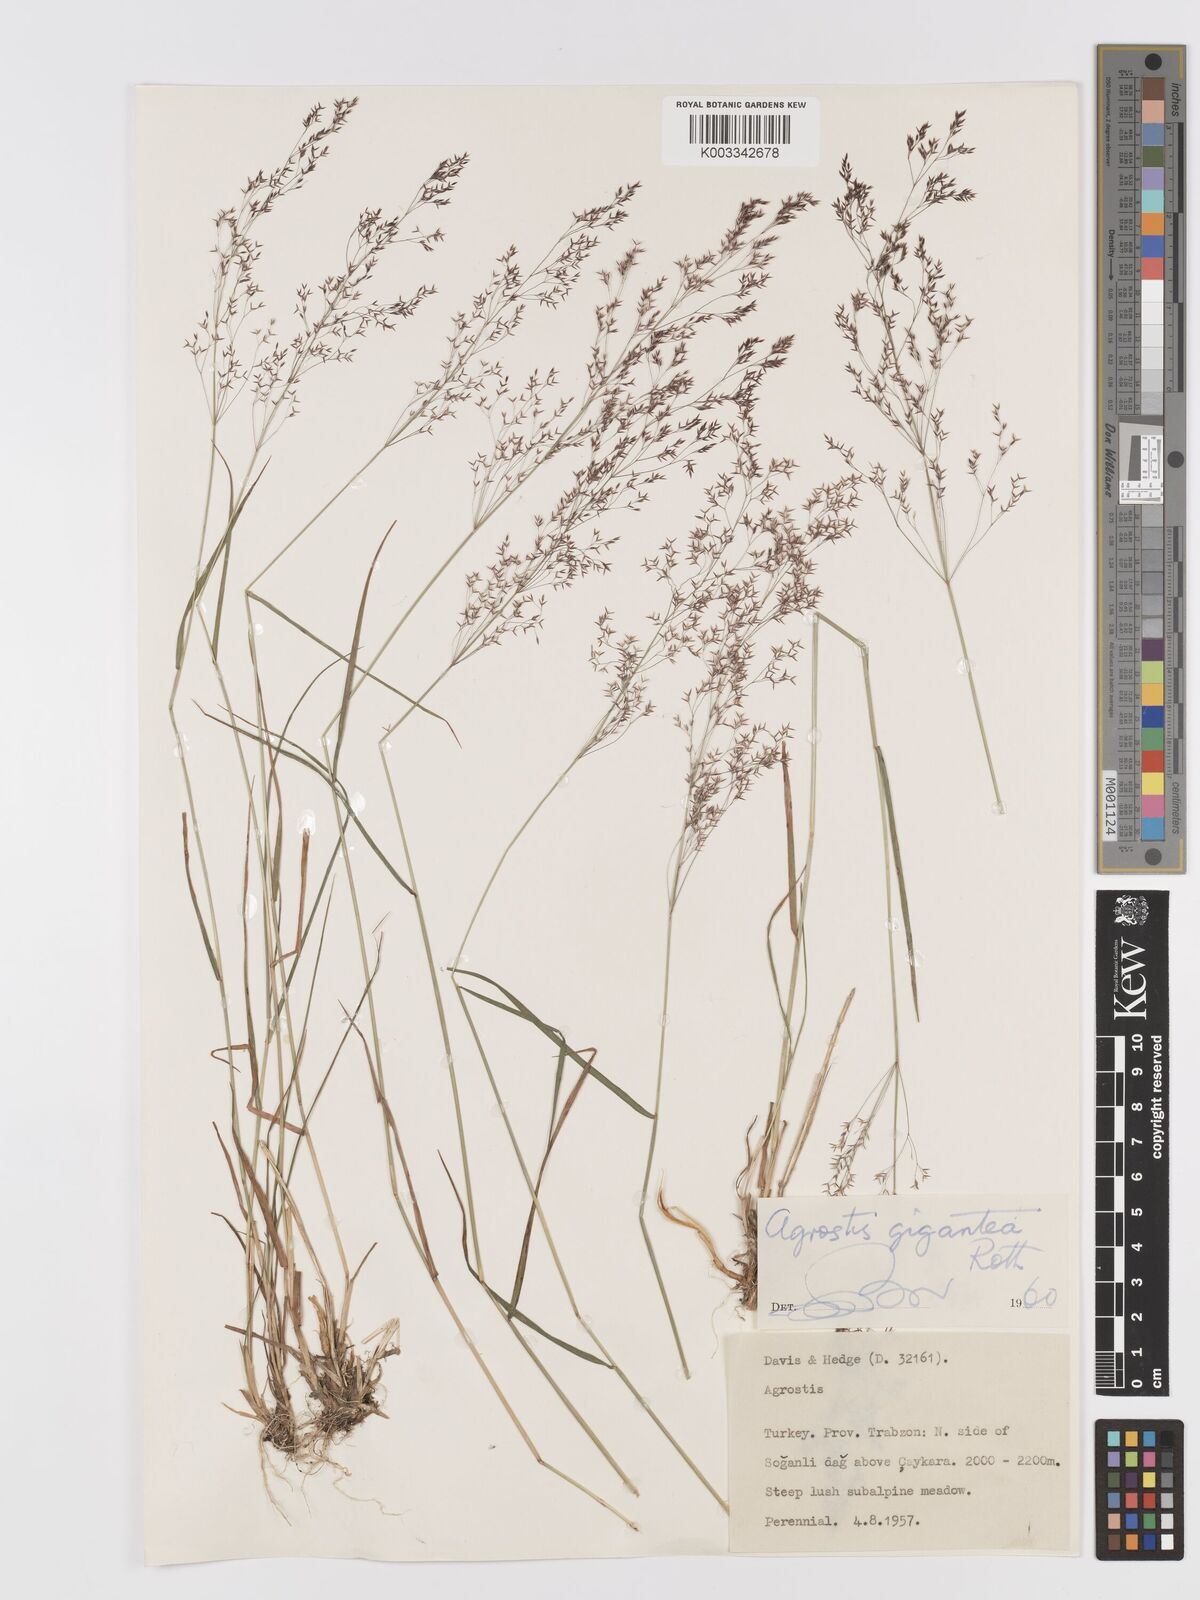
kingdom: Plantae
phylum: Tracheophyta
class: Liliopsida
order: Poales
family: Poaceae
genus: Agrostis
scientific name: Agrostis gigantea
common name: Black bent
